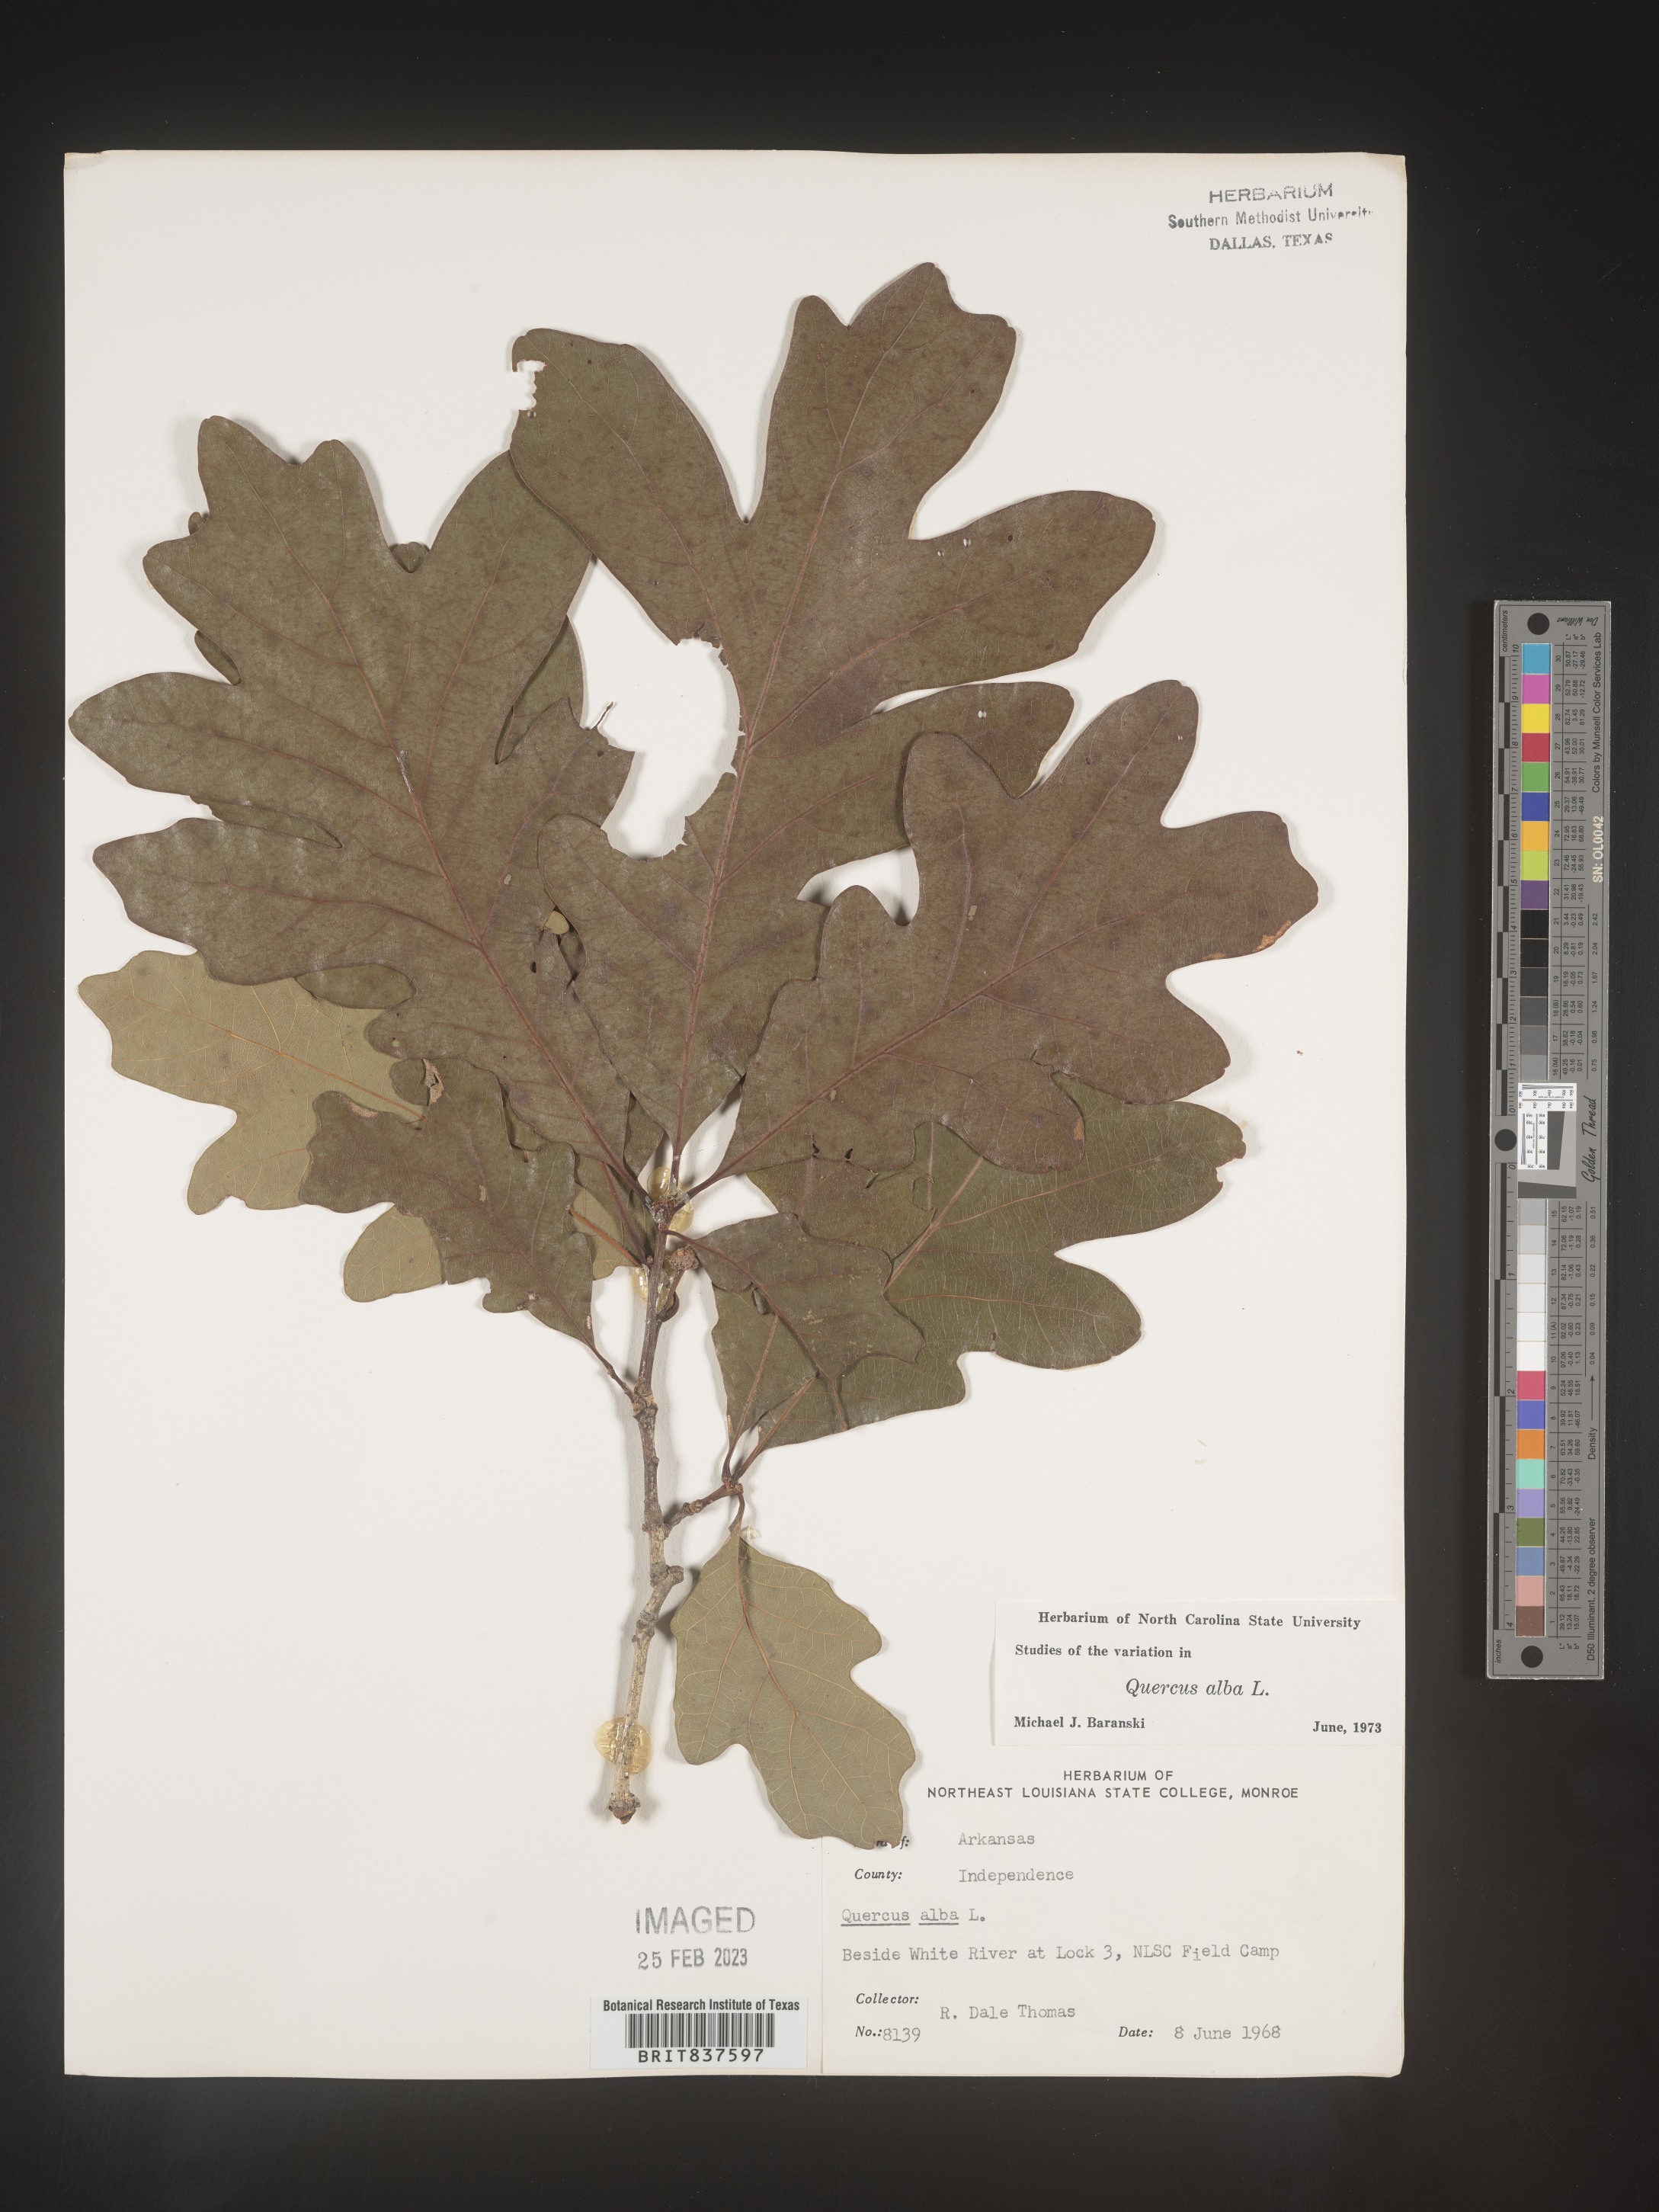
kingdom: Plantae
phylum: Tracheophyta
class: Magnoliopsida
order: Fagales
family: Fagaceae
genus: Quercus
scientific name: Quercus alba
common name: White oak
